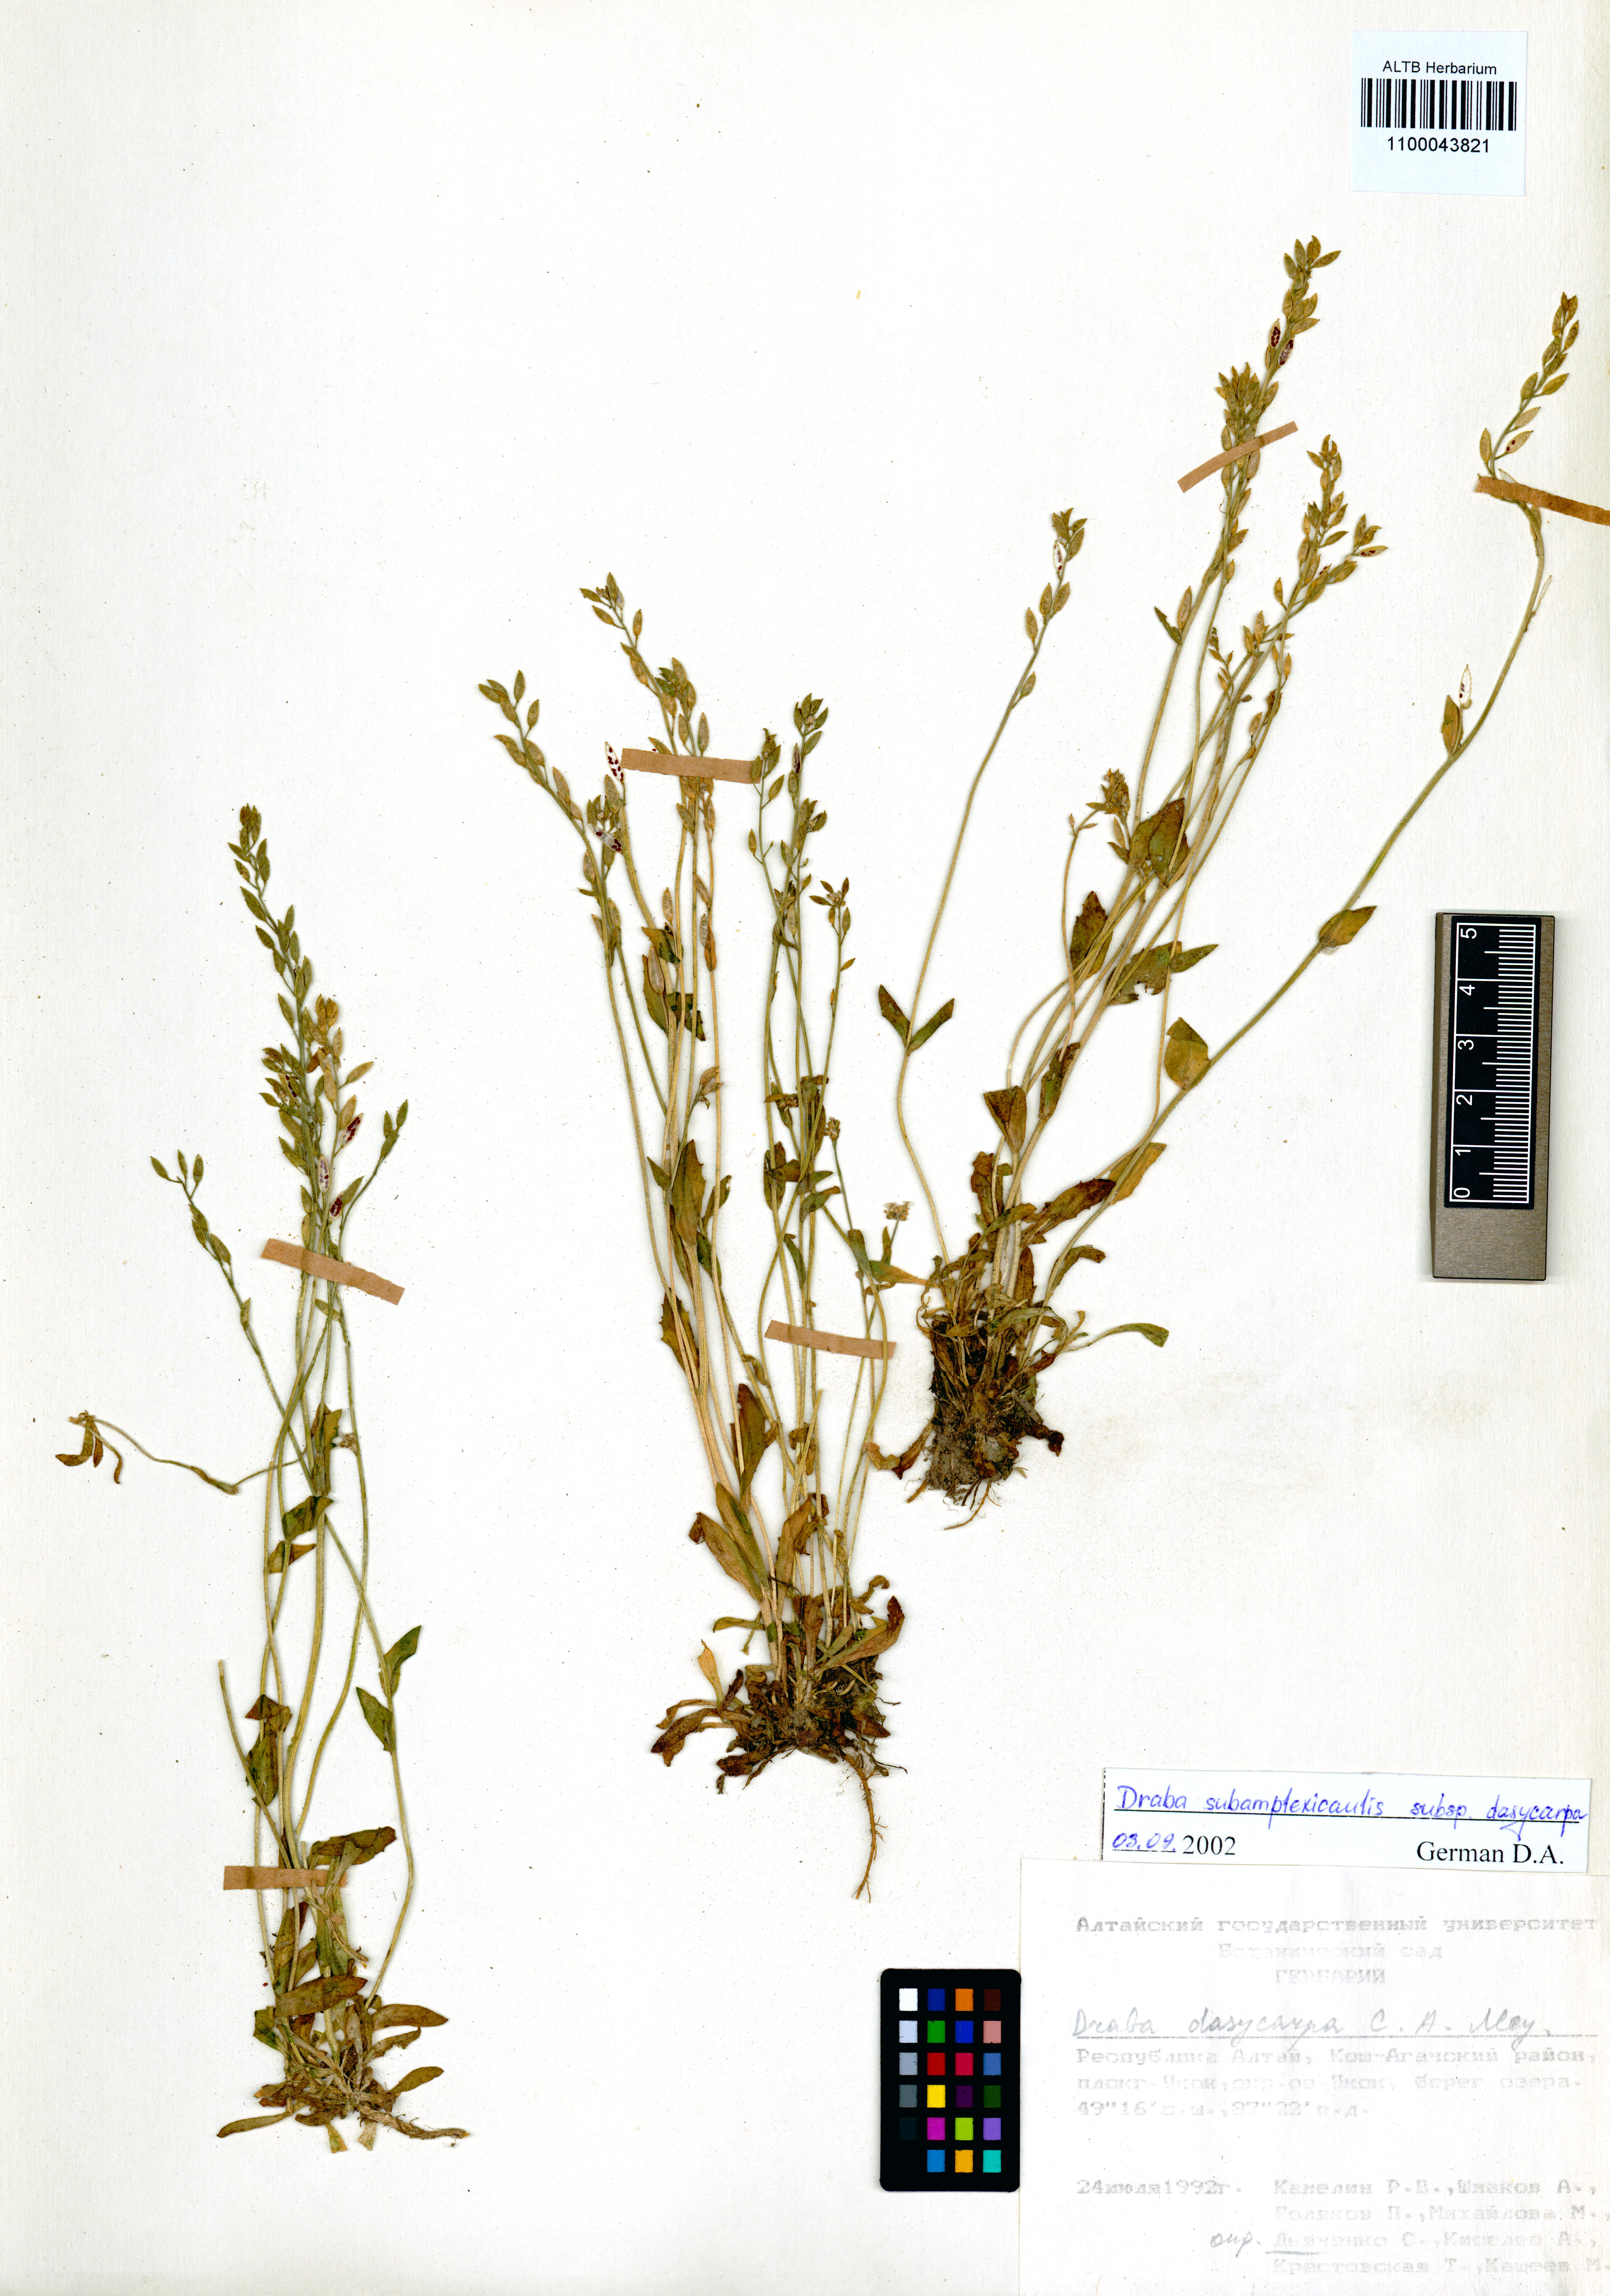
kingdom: Plantae
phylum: Tracheophyta
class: Magnoliopsida
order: Brassicales
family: Brassicaceae
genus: Draba
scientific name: Draba subamplexicaulis
